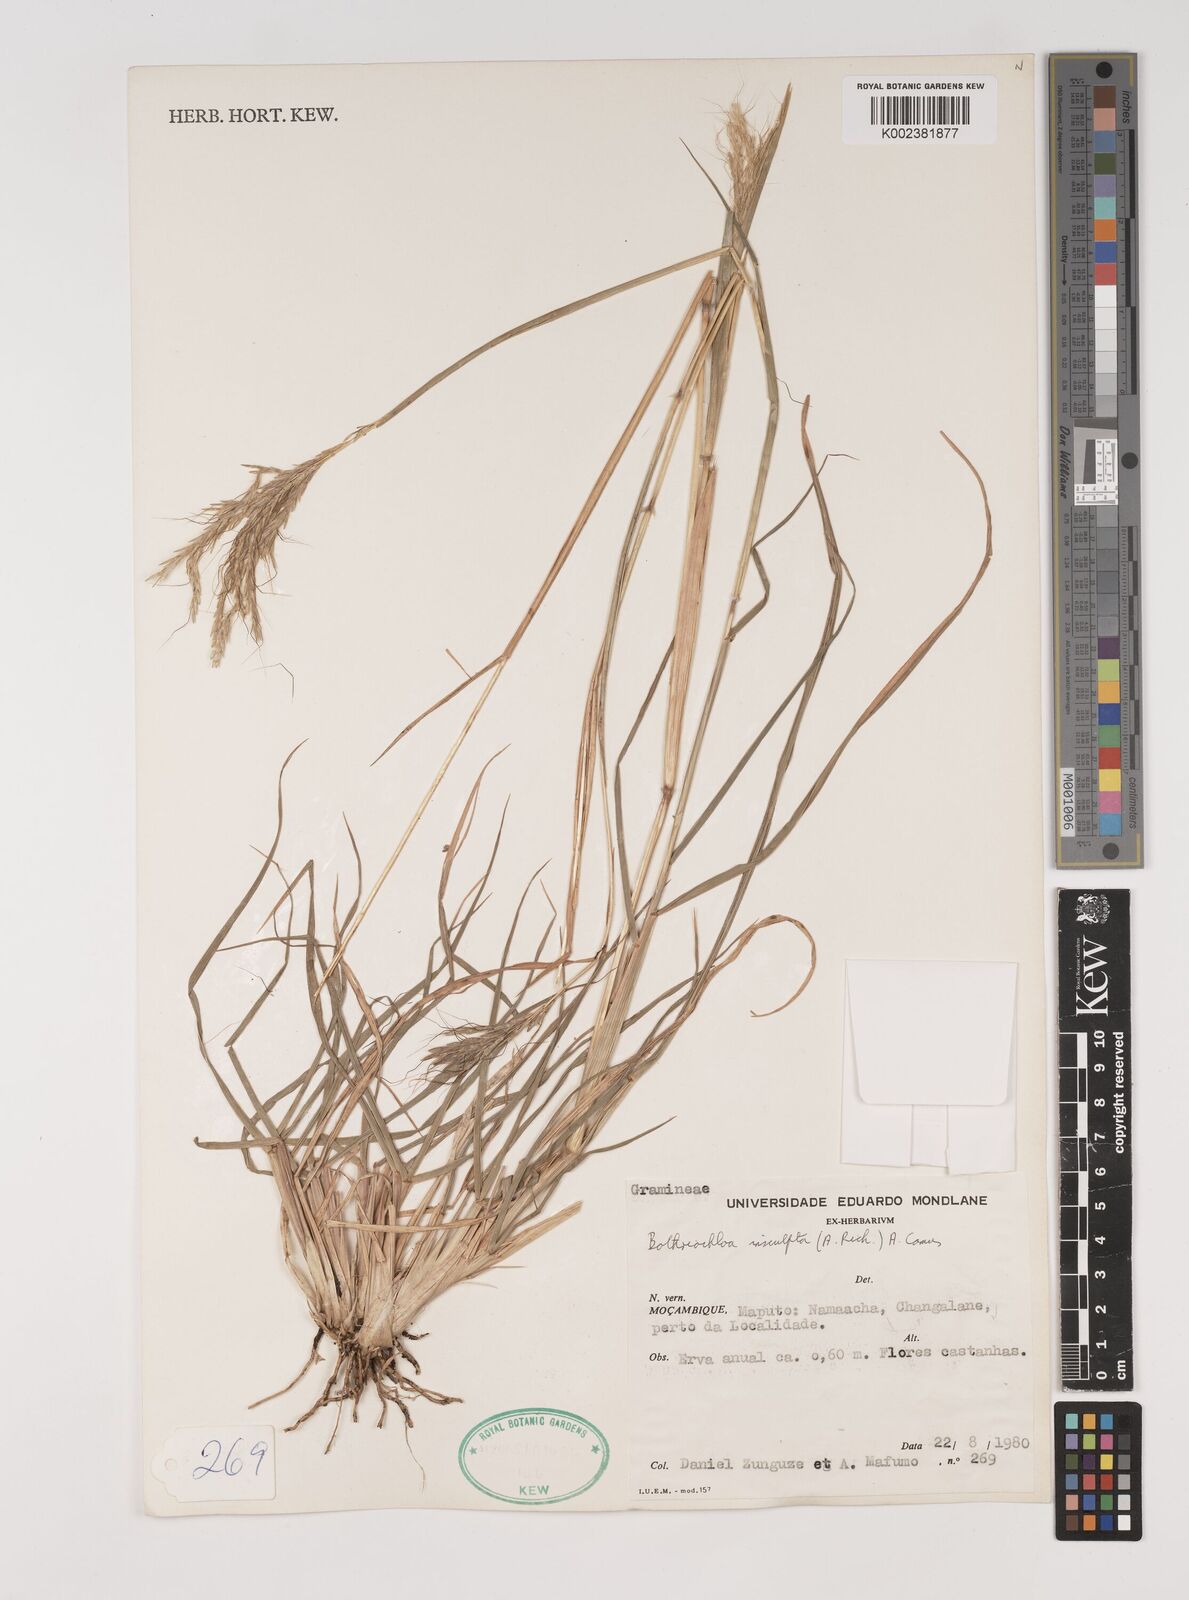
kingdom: Plantae
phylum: Tracheophyta
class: Liliopsida
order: Poales
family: Poaceae
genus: Bothriochloa
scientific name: Bothriochloa insculpta
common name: Creeping-bluegrass
